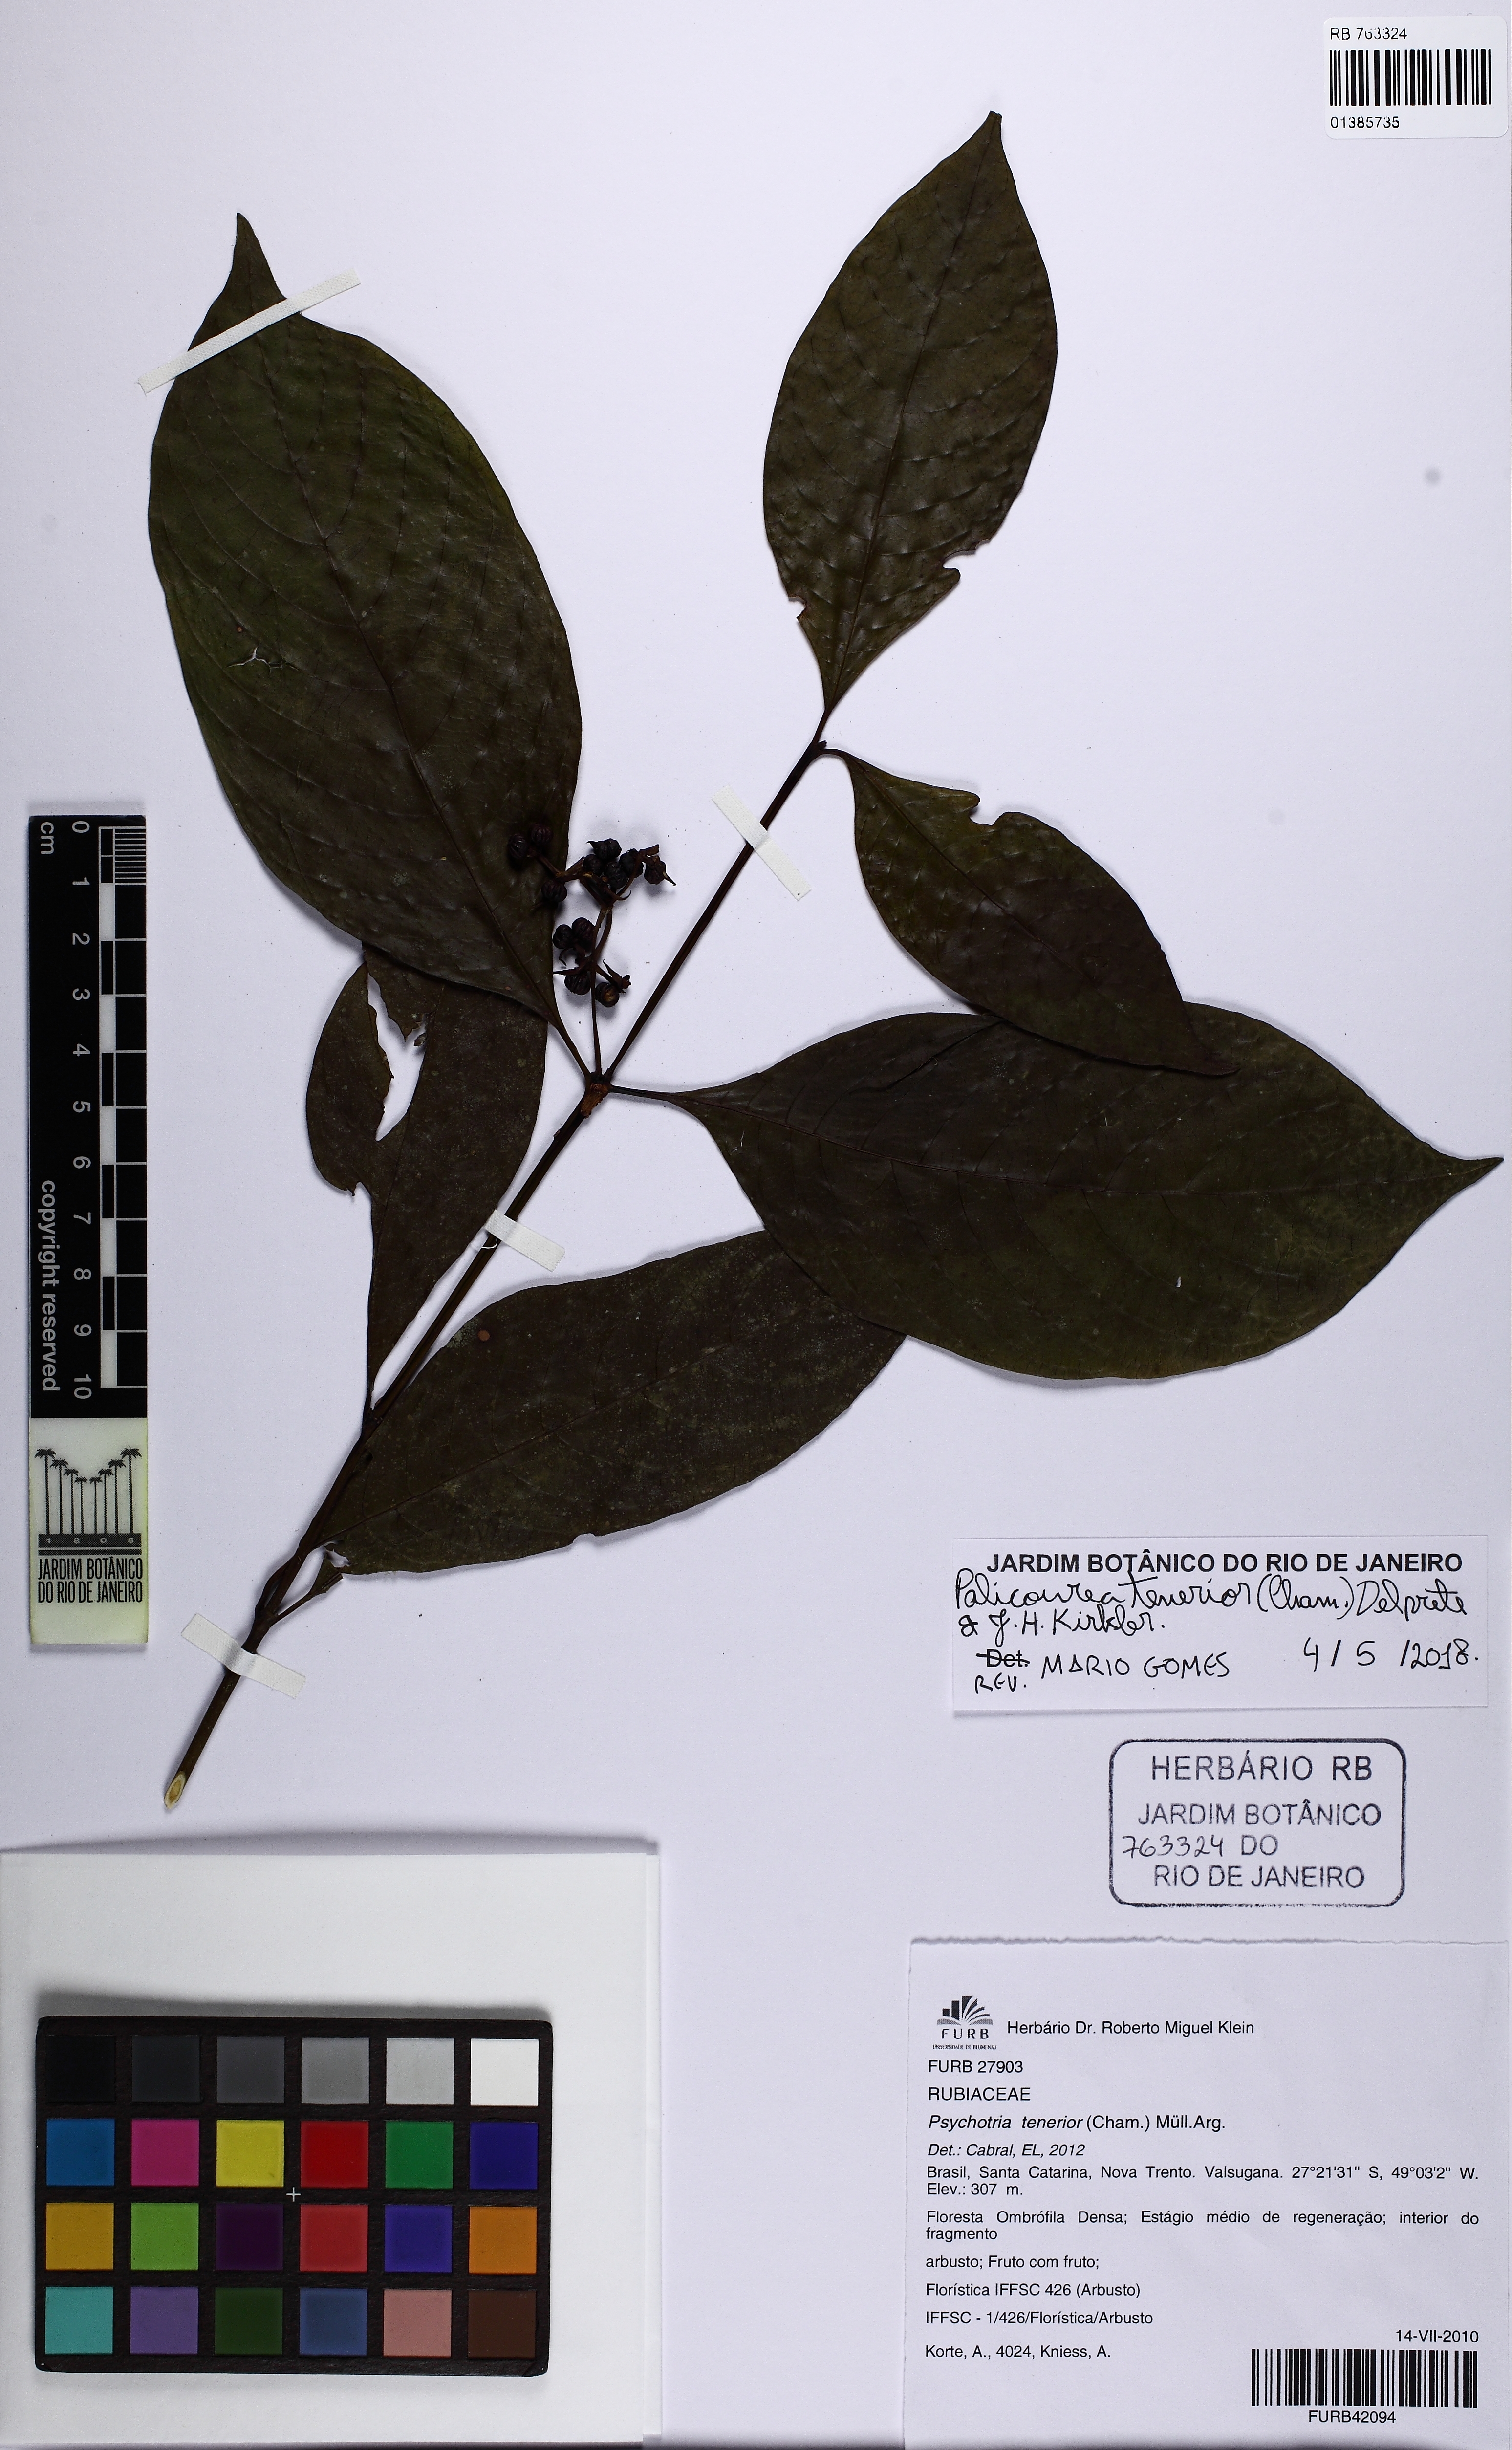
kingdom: Plantae
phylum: Tracheophyta
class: Magnoliopsida
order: Gentianales
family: Rubiaceae
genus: Palicourea
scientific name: Palicourea tenerior
